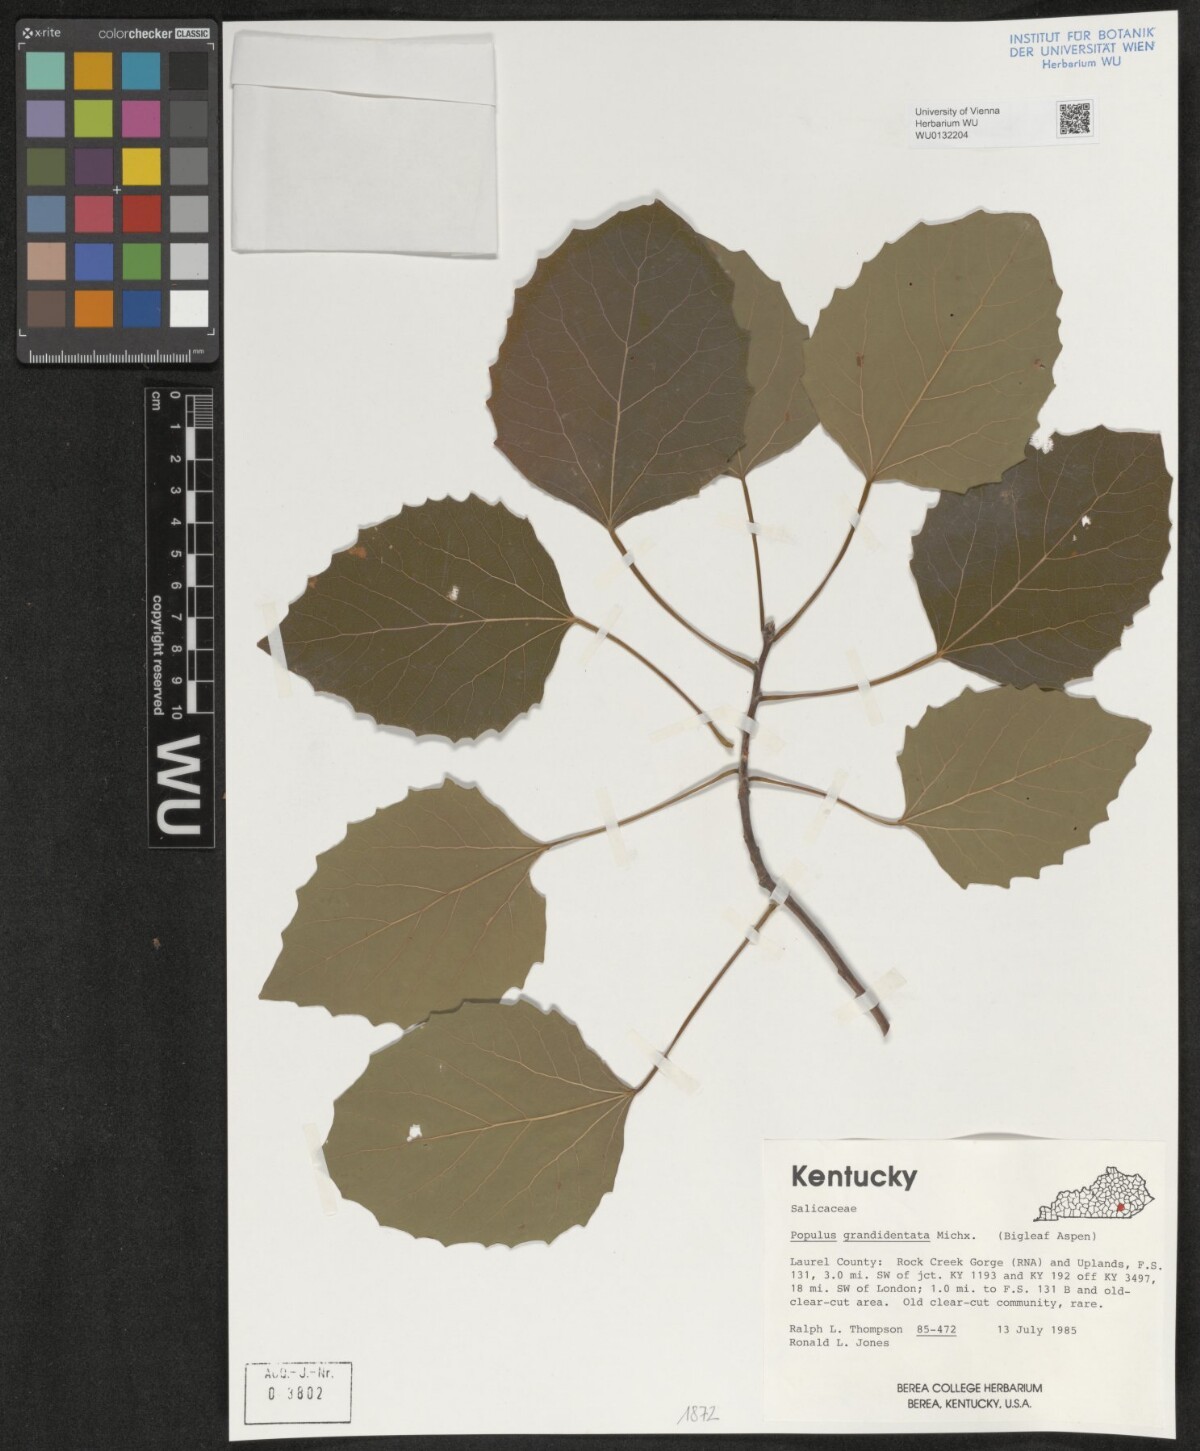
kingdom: Plantae
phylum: Tracheophyta
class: Magnoliopsida
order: Malpighiales
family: Salicaceae
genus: Populus
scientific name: Populus grandidentata
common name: Bigtooth aspen
